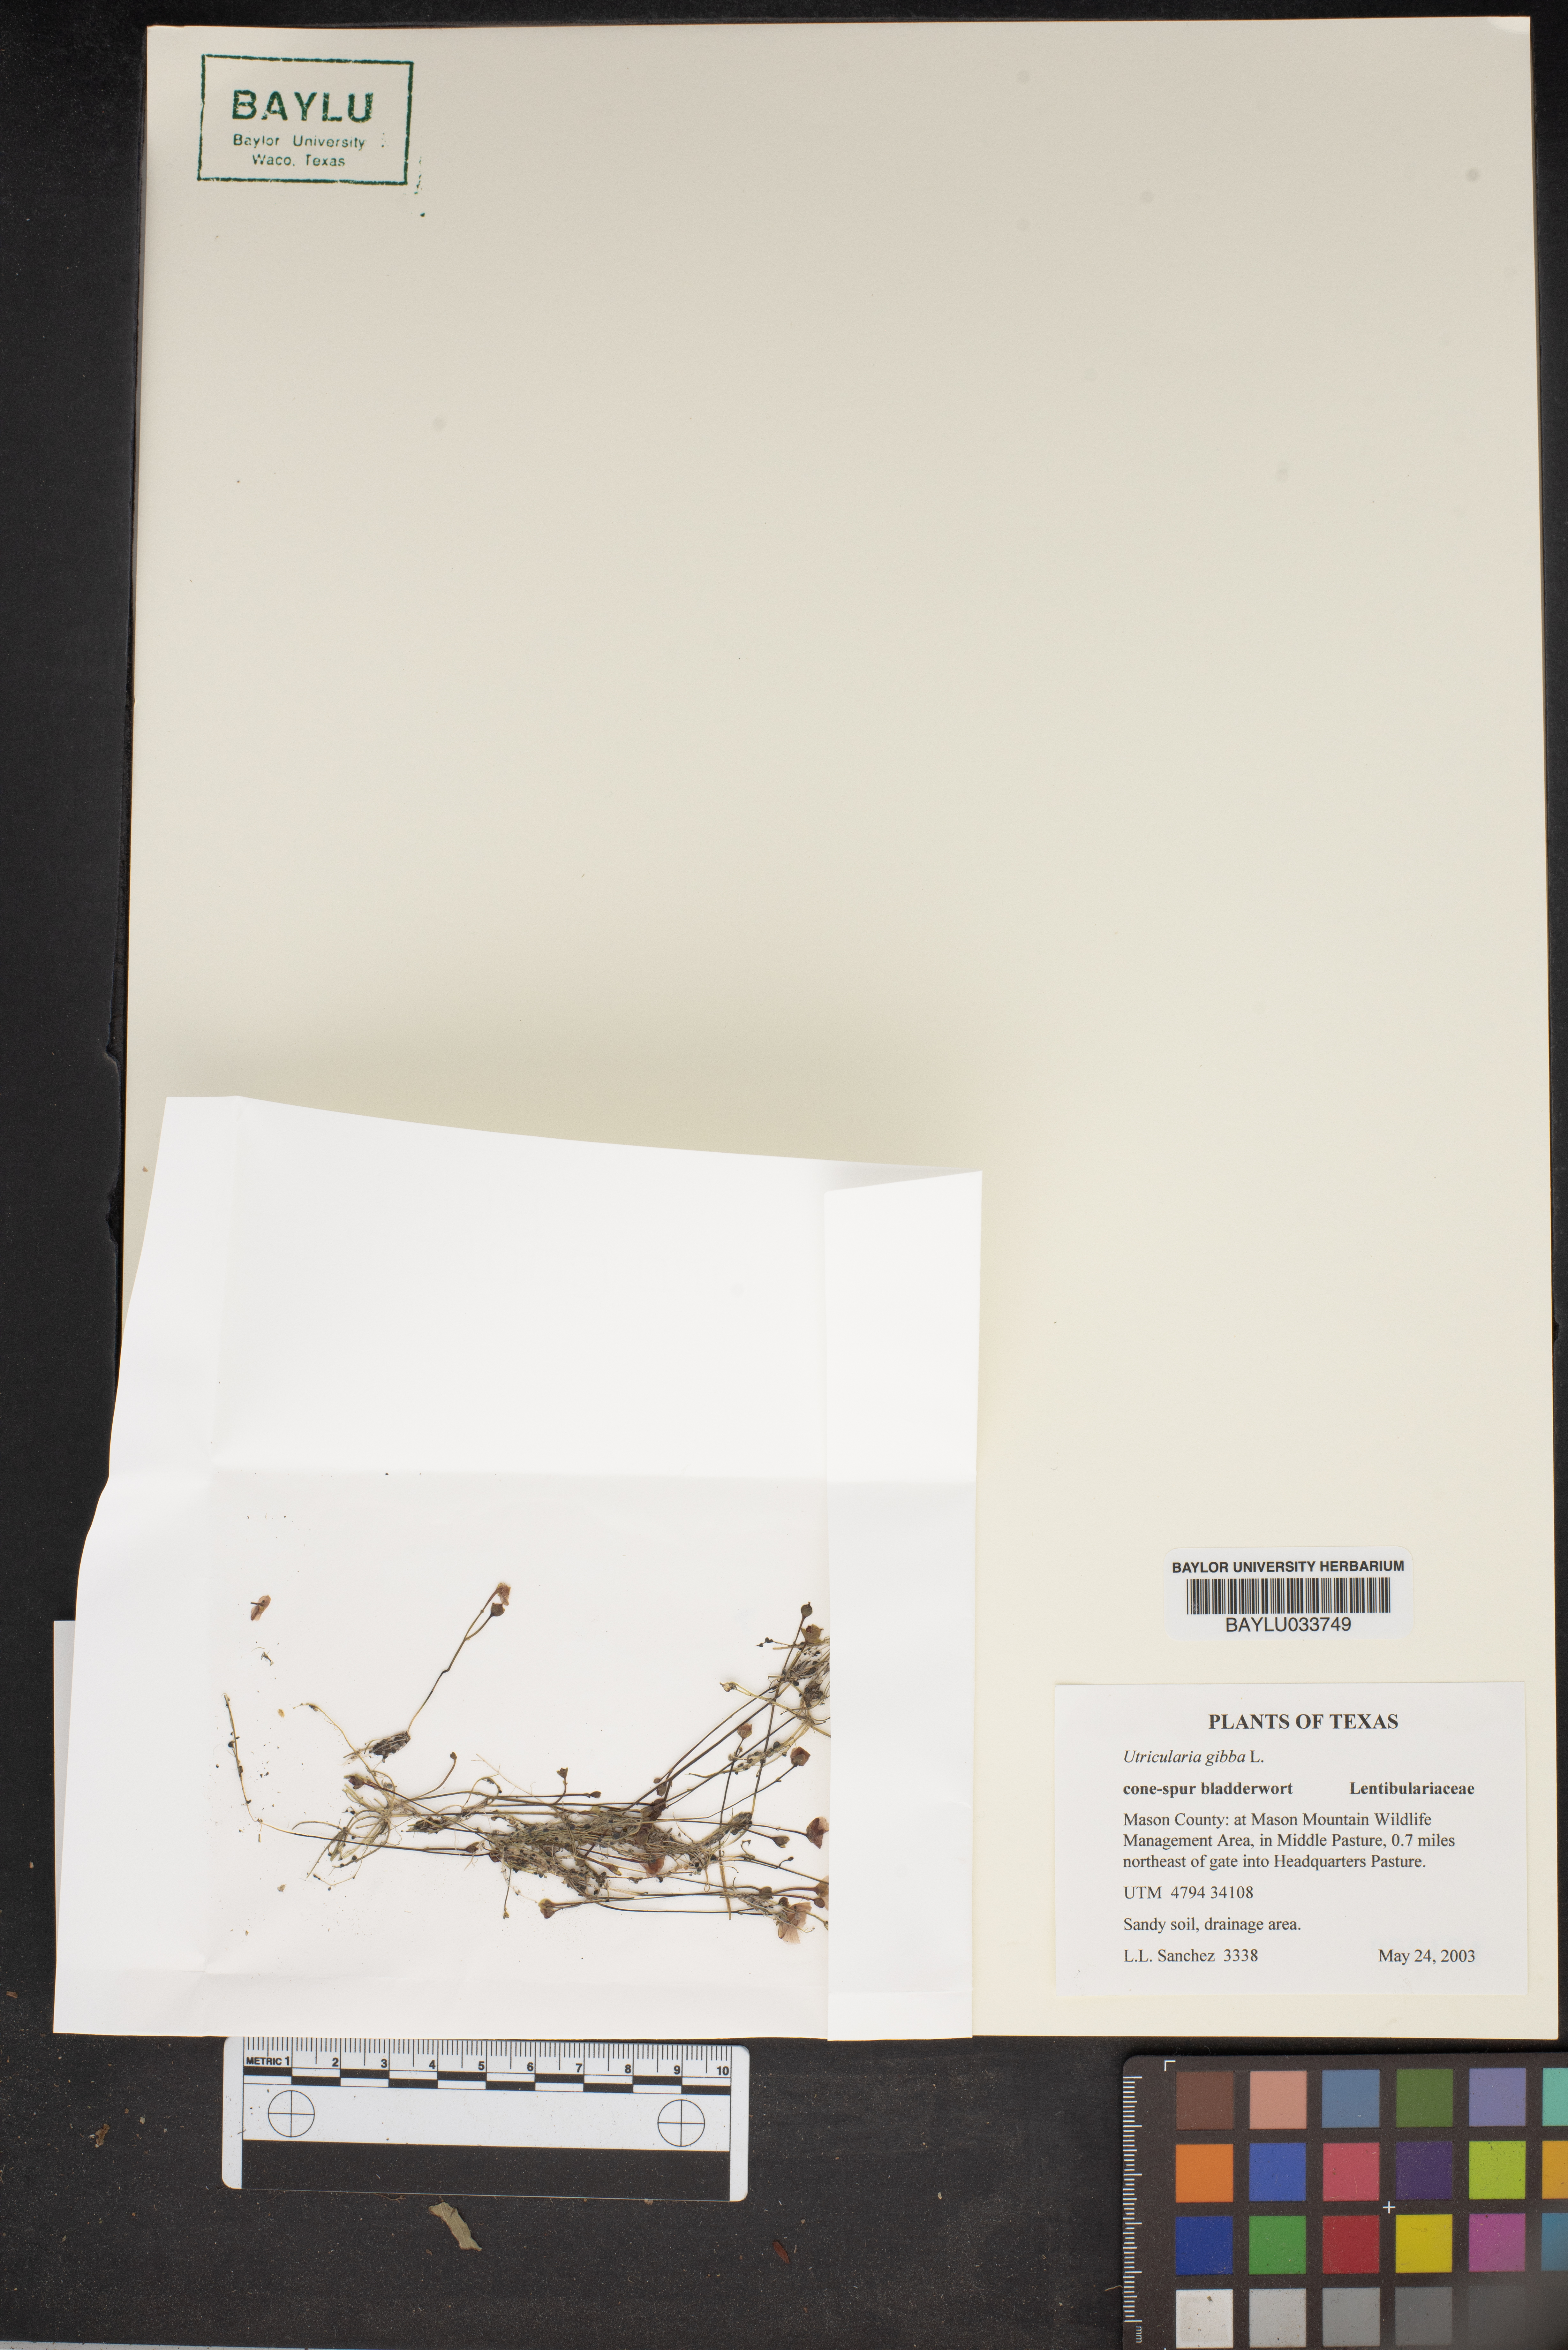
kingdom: Plantae
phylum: Tracheophyta
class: Magnoliopsida
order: Lamiales
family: Lentibulariaceae
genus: Utricularia
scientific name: Utricularia gibba
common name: Humped bladderwort
